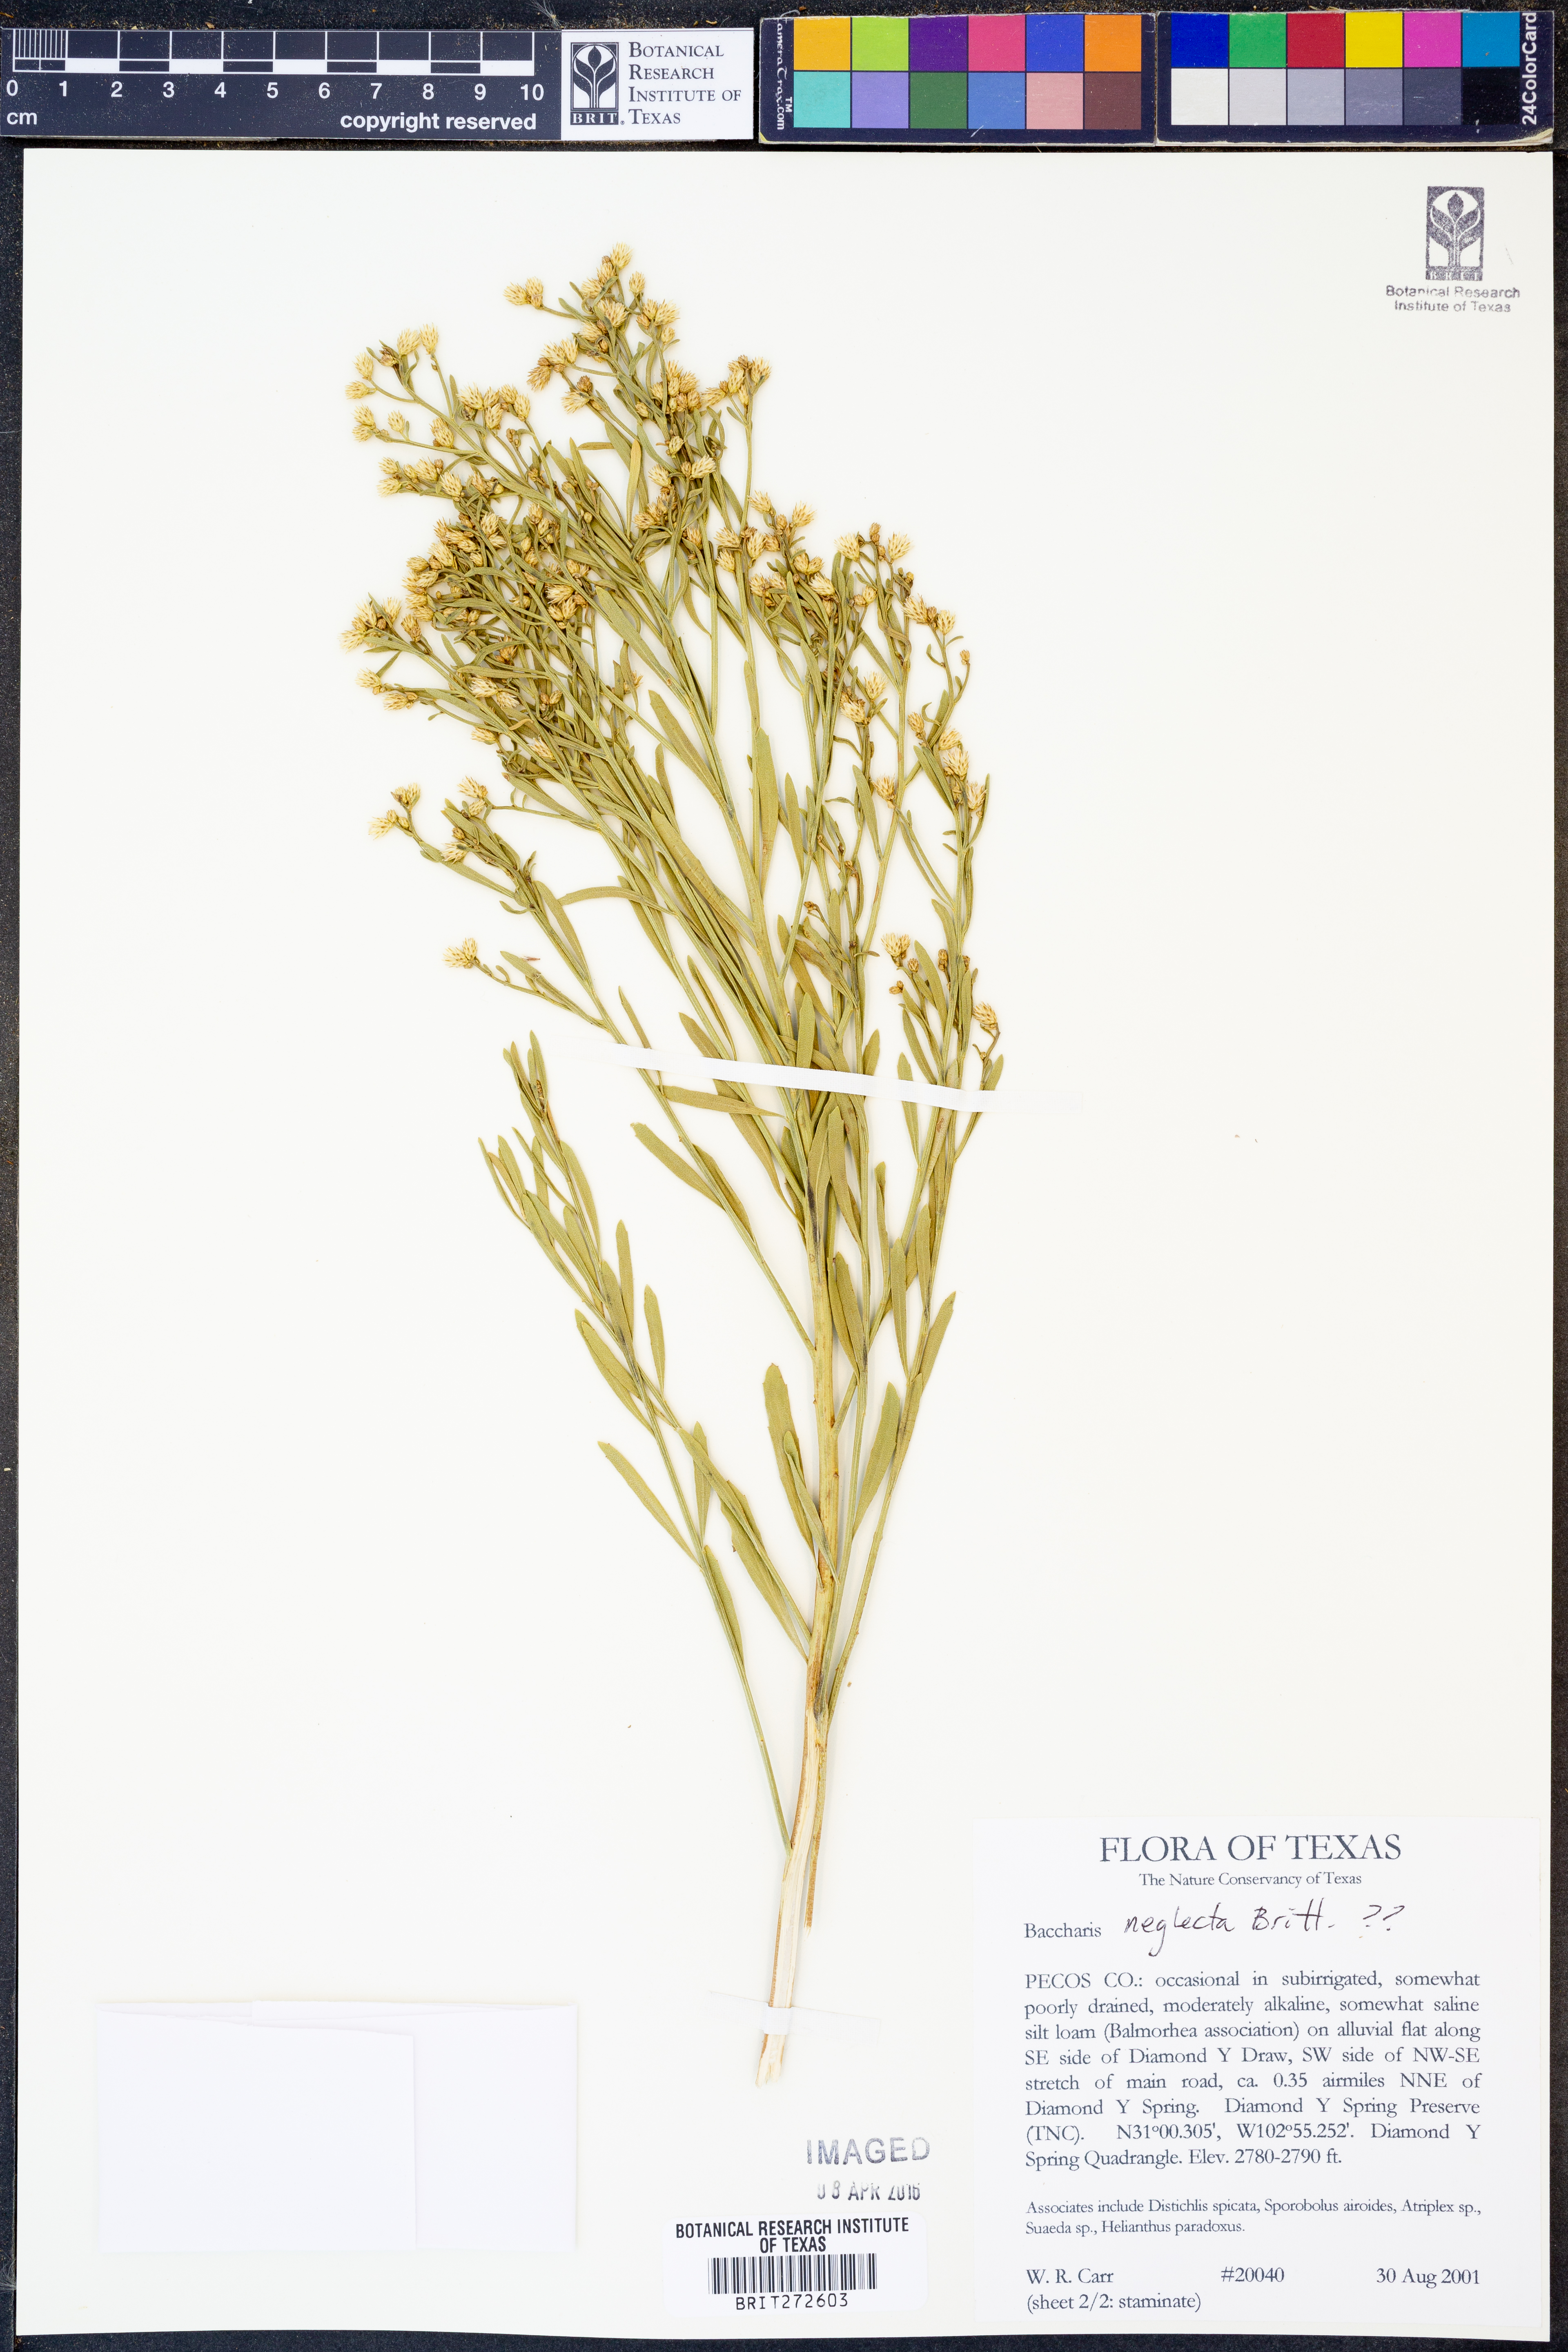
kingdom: Plantae
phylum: Tracheophyta
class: Magnoliopsida
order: Asterales
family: Asteraceae
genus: Baccharis
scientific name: Baccharis neglecta
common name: Roosevelt-weed
